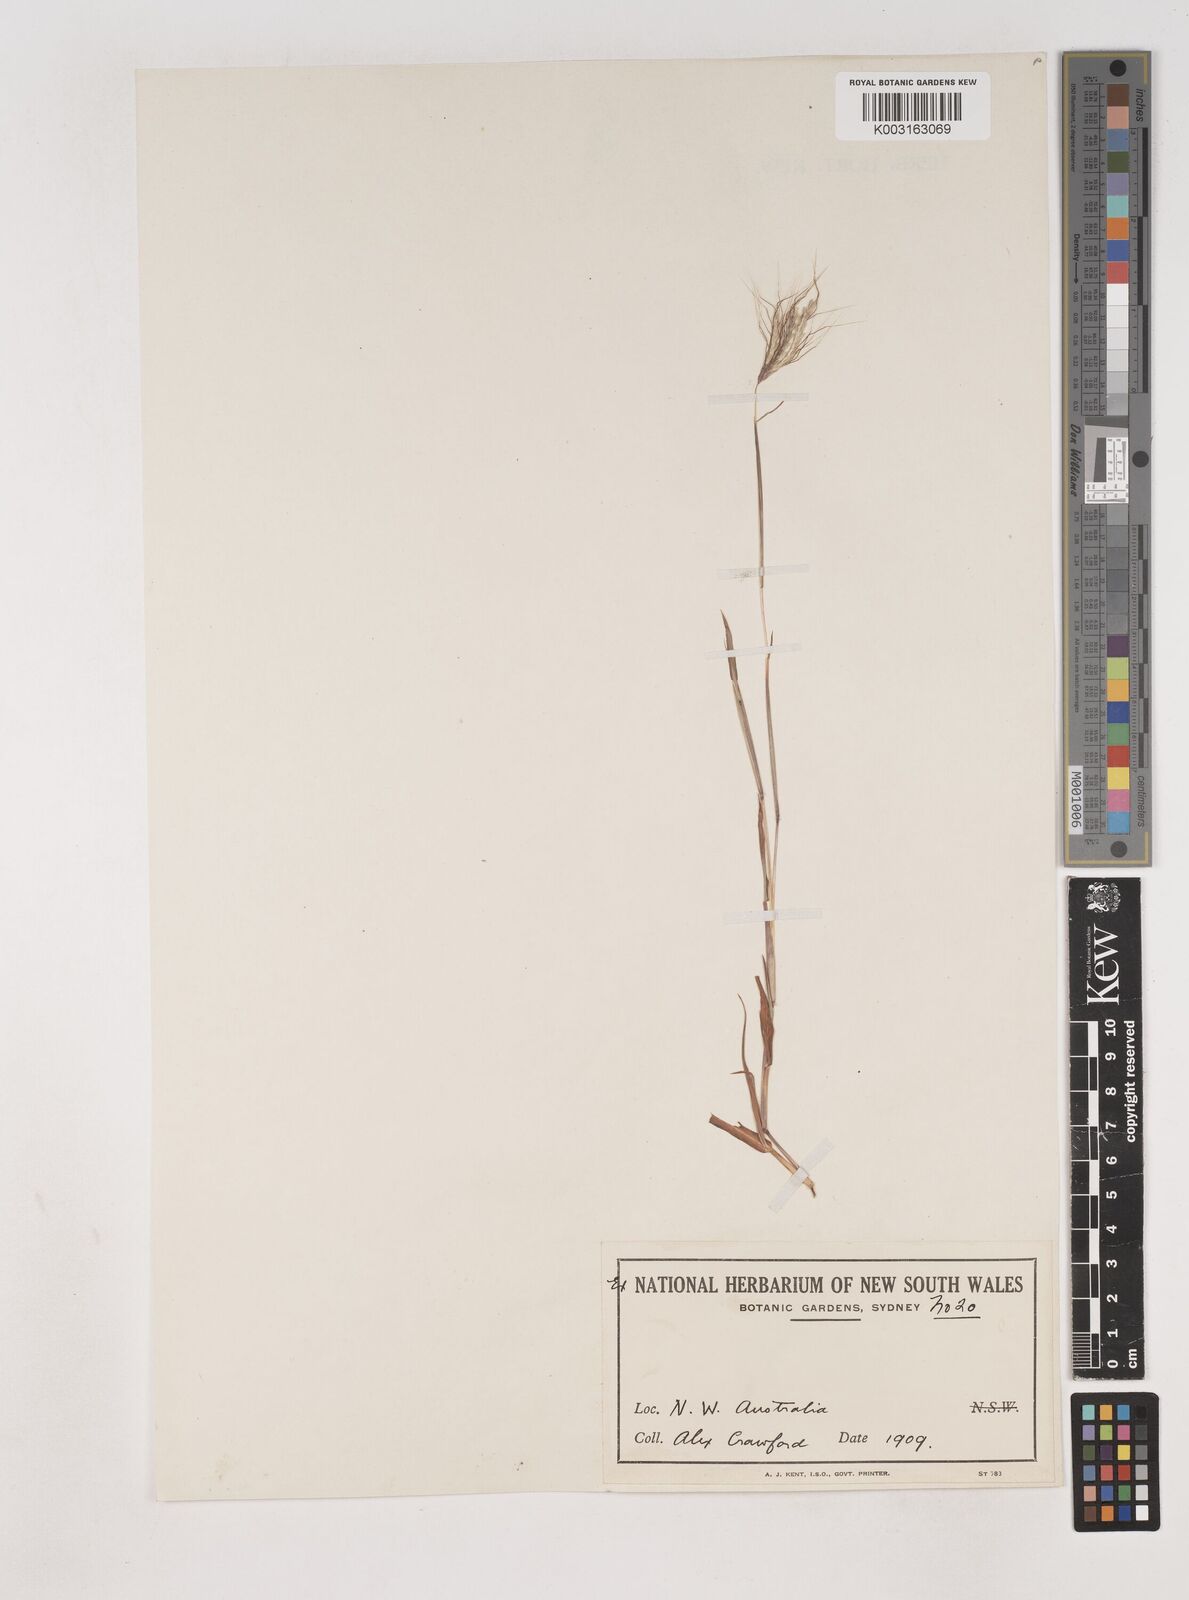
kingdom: Plantae
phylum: Tracheophyta
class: Liliopsida
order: Poales
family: Poaceae
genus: Dichanthium
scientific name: Dichanthium sericeum
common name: Silky bluestem
